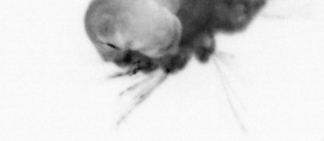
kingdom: Animalia
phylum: Annelida
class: Polychaeta
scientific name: Polychaeta
